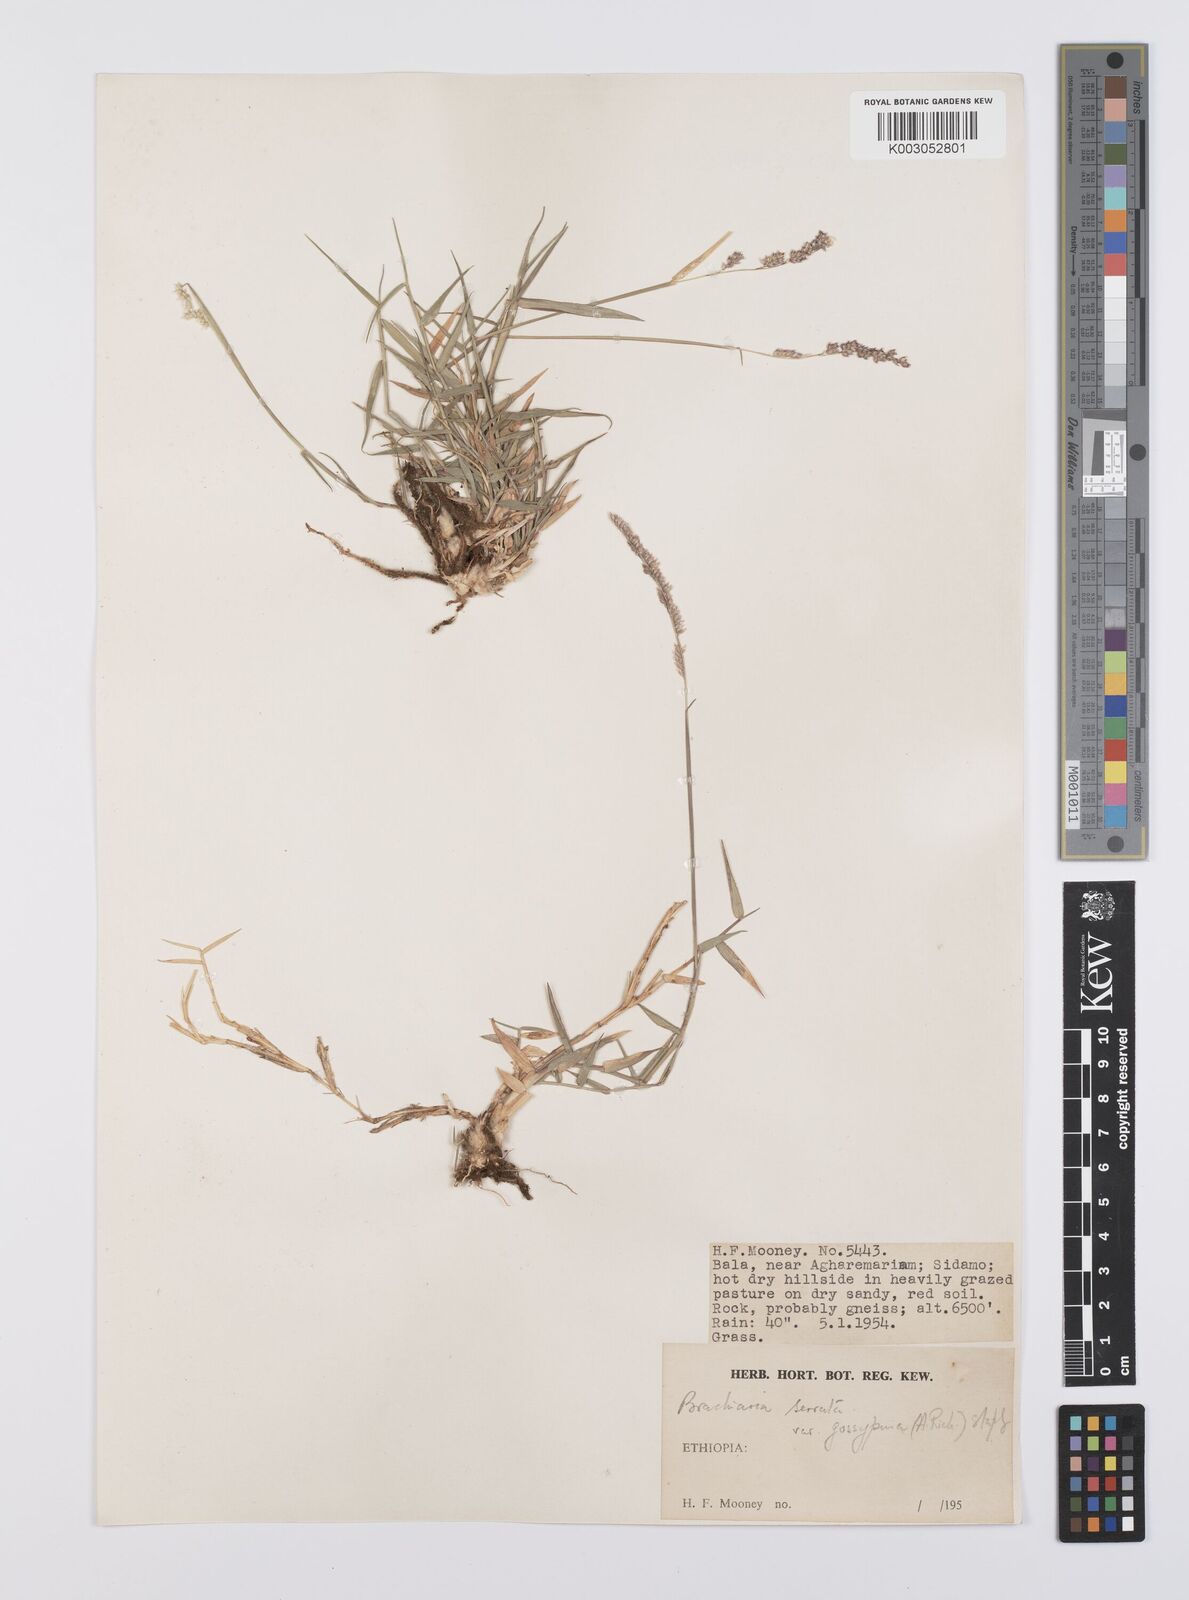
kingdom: Plantae
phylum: Tracheophyta
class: Liliopsida
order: Poales
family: Poaceae
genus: Urochloa
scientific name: Urochloa serrata
